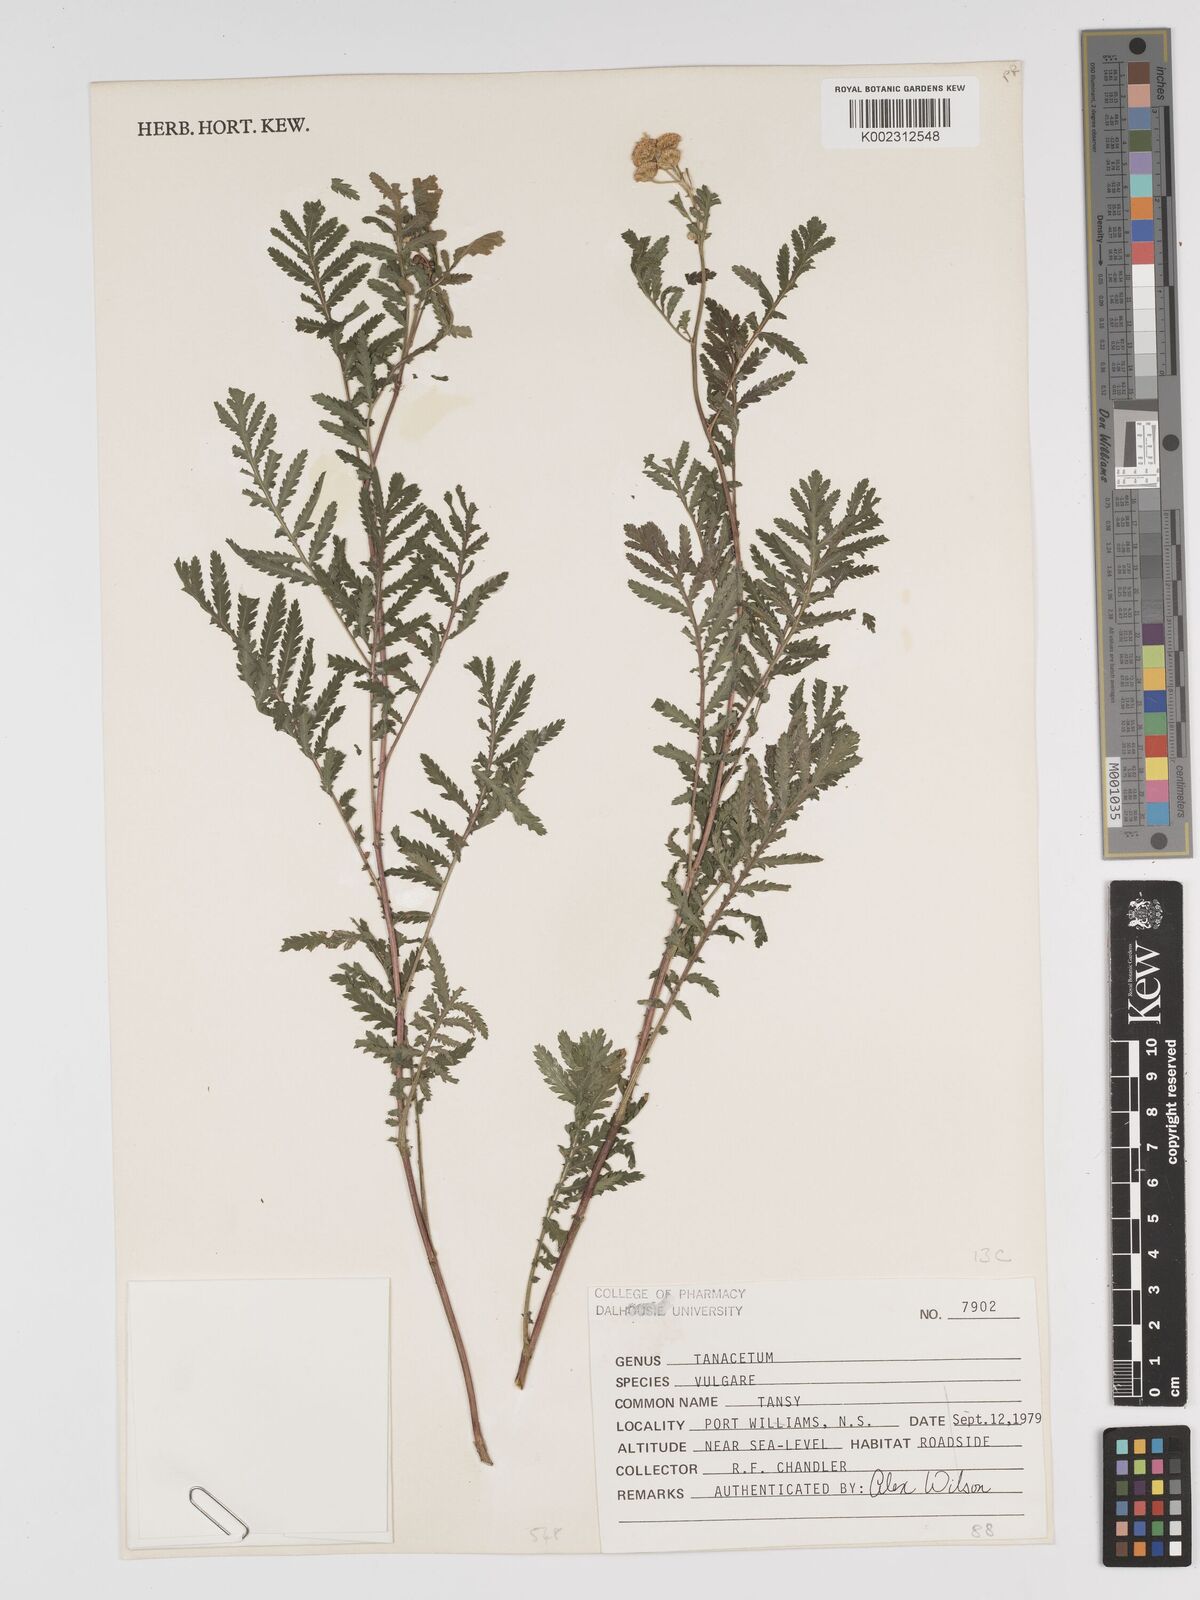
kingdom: Plantae
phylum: Tracheophyta
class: Magnoliopsida
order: Asterales
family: Asteraceae
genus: Tanacetum
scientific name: Tanacetum vulgare
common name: Common tansy
